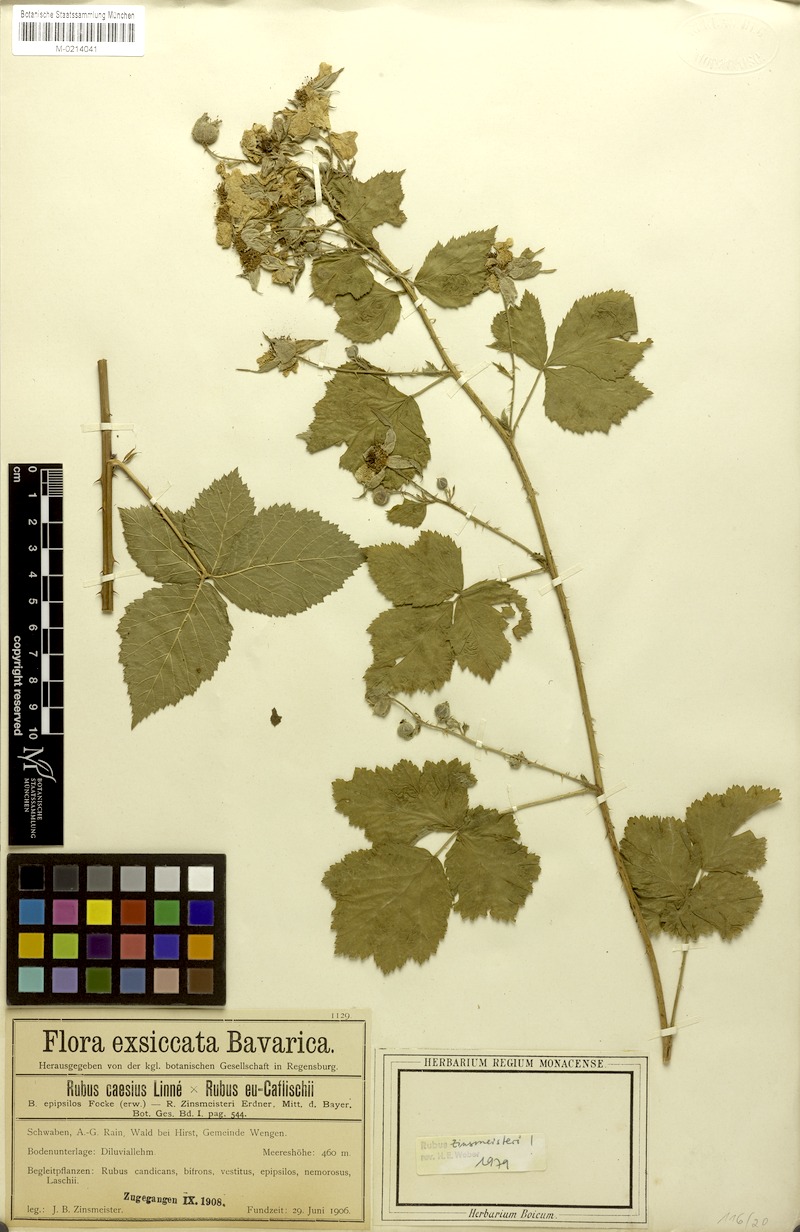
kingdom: Plantae
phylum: Tracheophyta
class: Magnoliopsida
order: Rosales
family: Rosaceae
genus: Rubus
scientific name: Rubus zinsmeisteri
